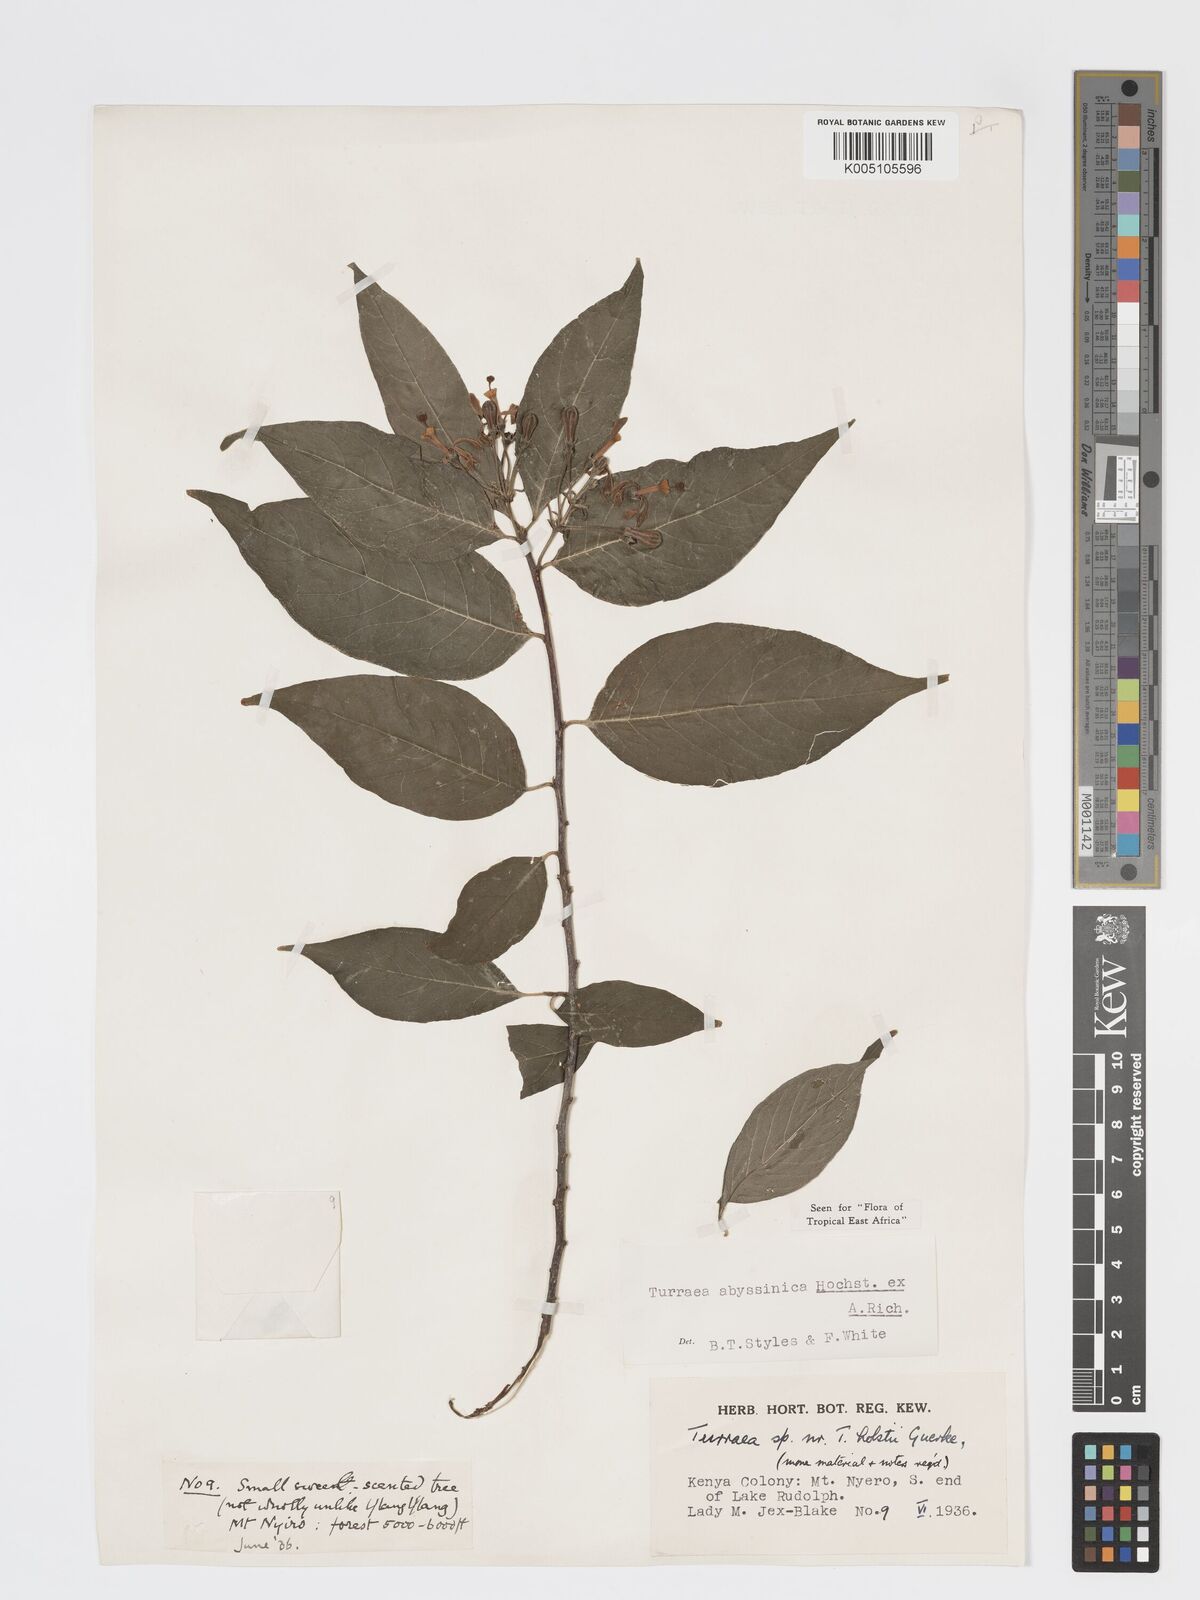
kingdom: Plantae
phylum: Tracheophyta
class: Magnoliopsida
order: Sapindales
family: Meliaceae
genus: Turraea
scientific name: Turraea abyssinica
